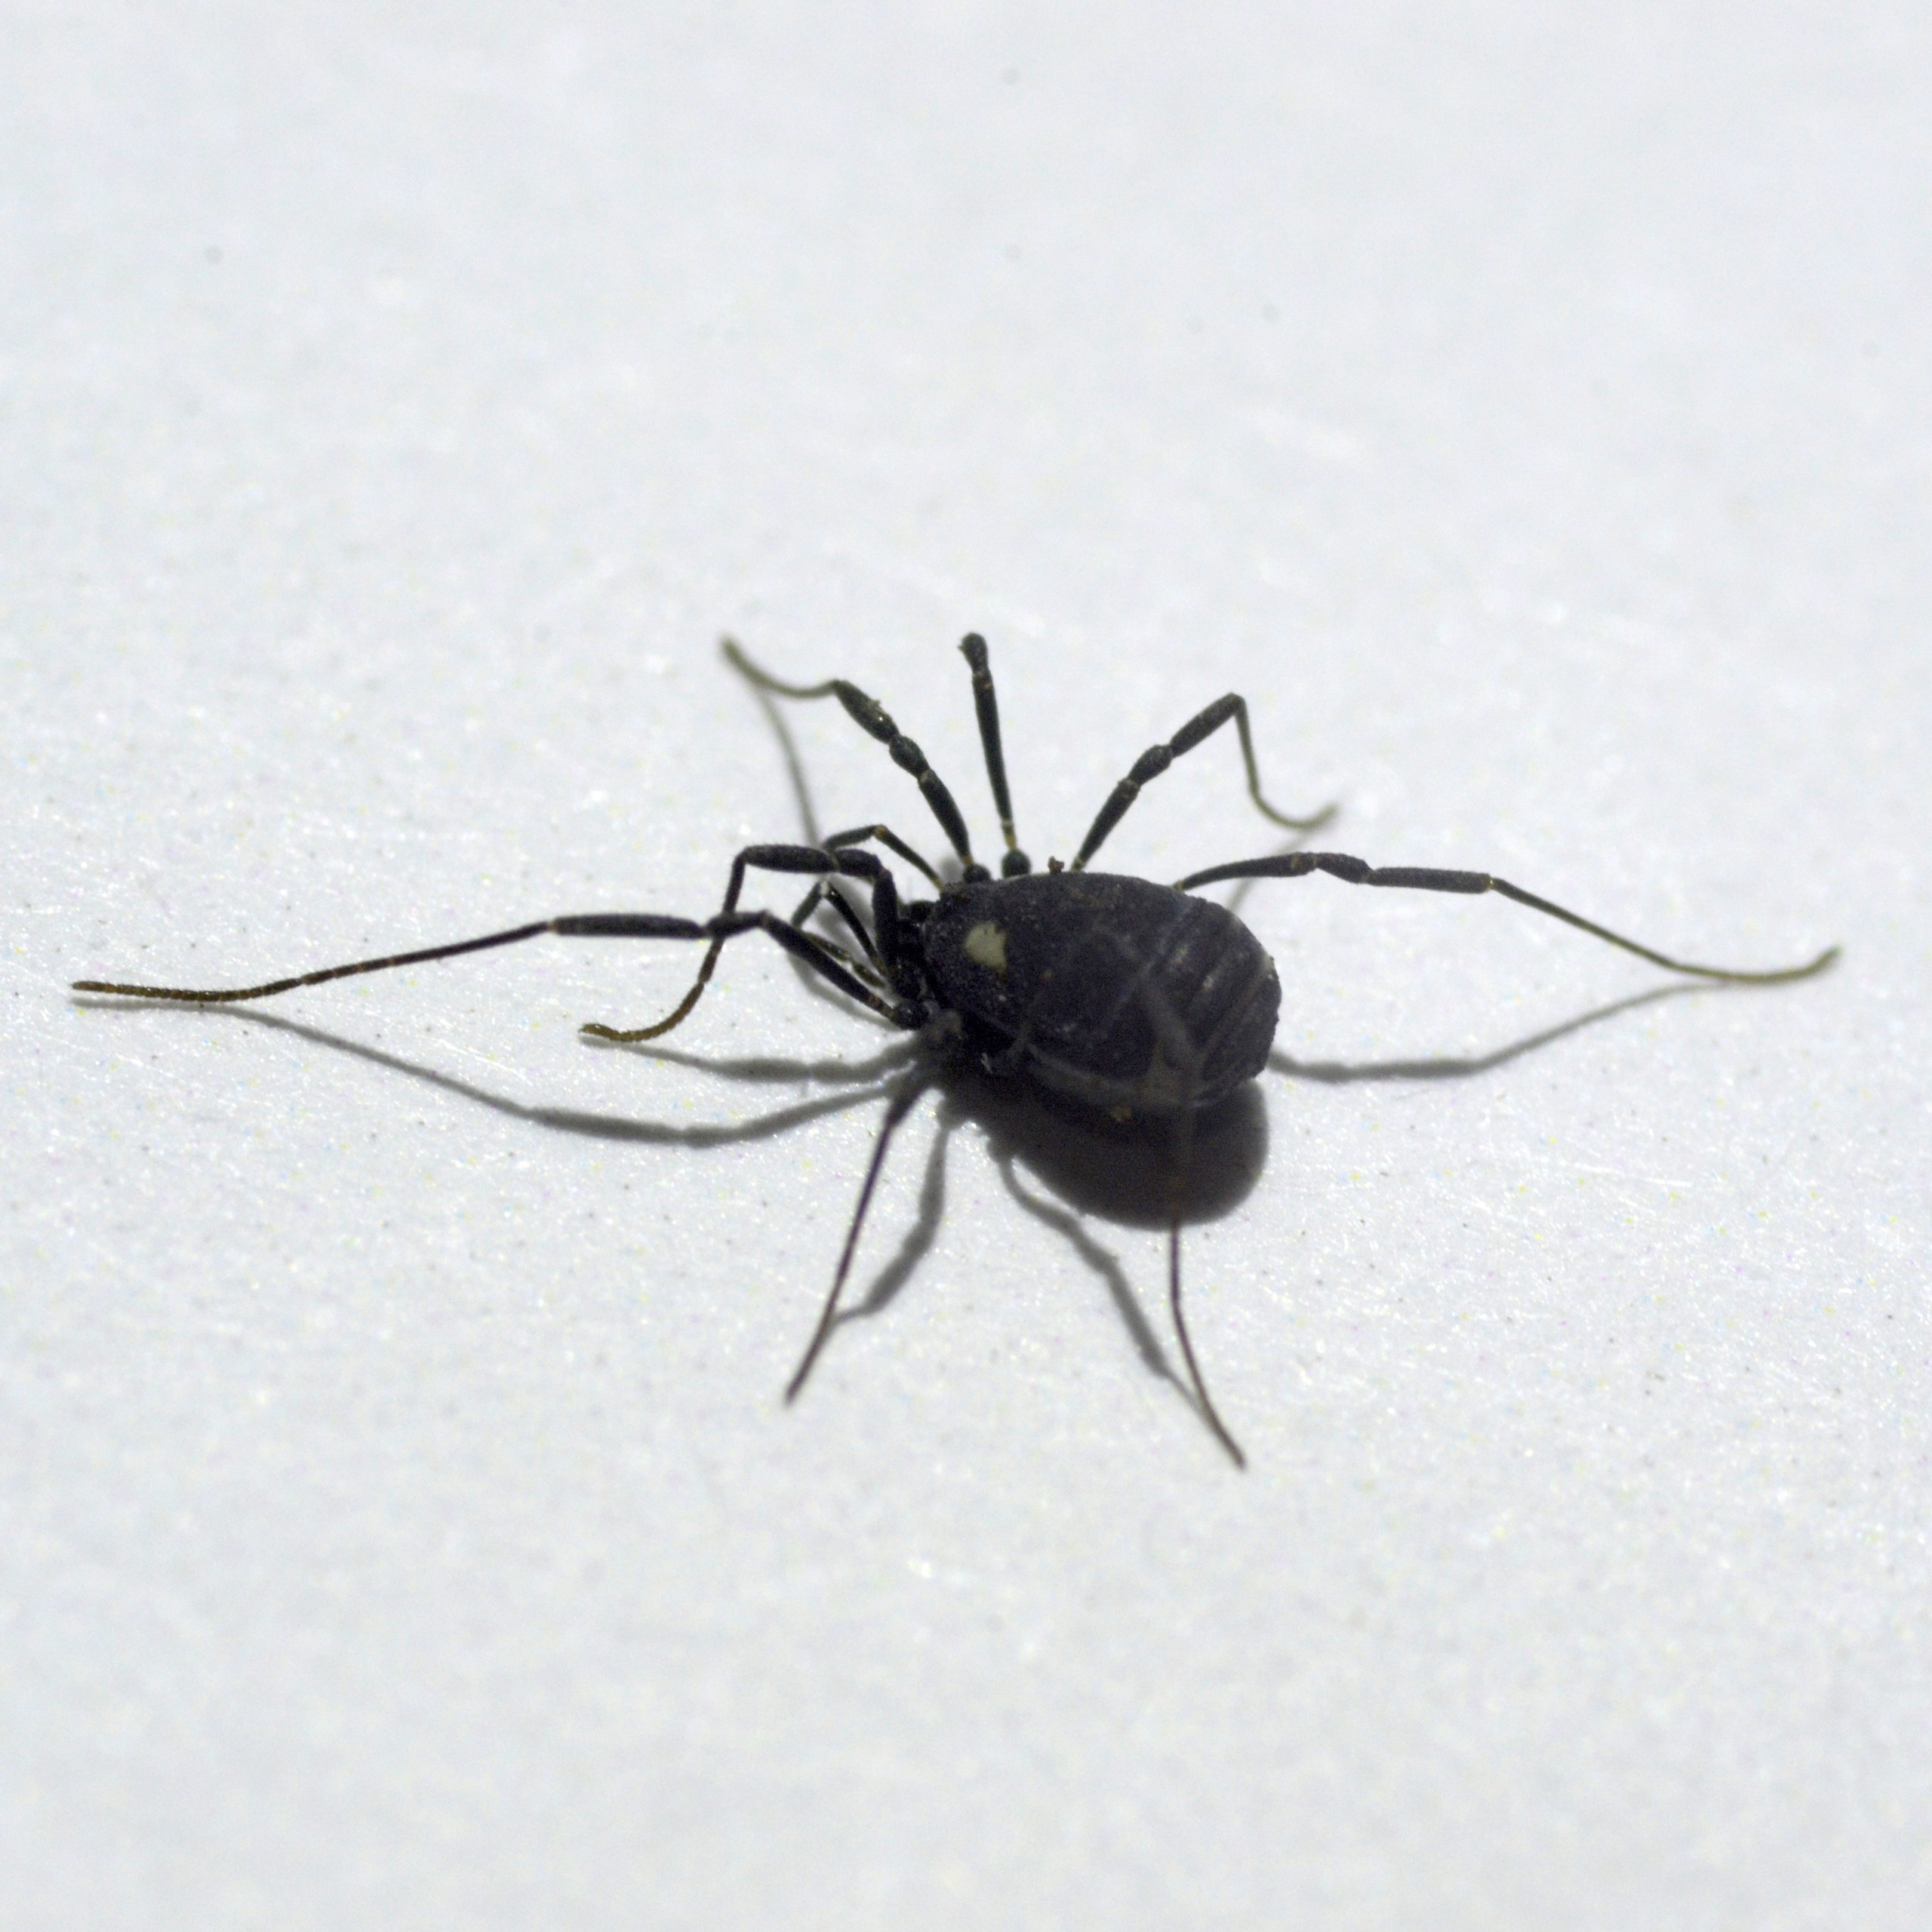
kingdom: Animalia
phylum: Arthropoda
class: Arachnida
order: Opiliones
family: Nemastomatidae
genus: Nemastoma
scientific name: Nemastoma lugubre
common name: Østlig dødningehovedmejer
